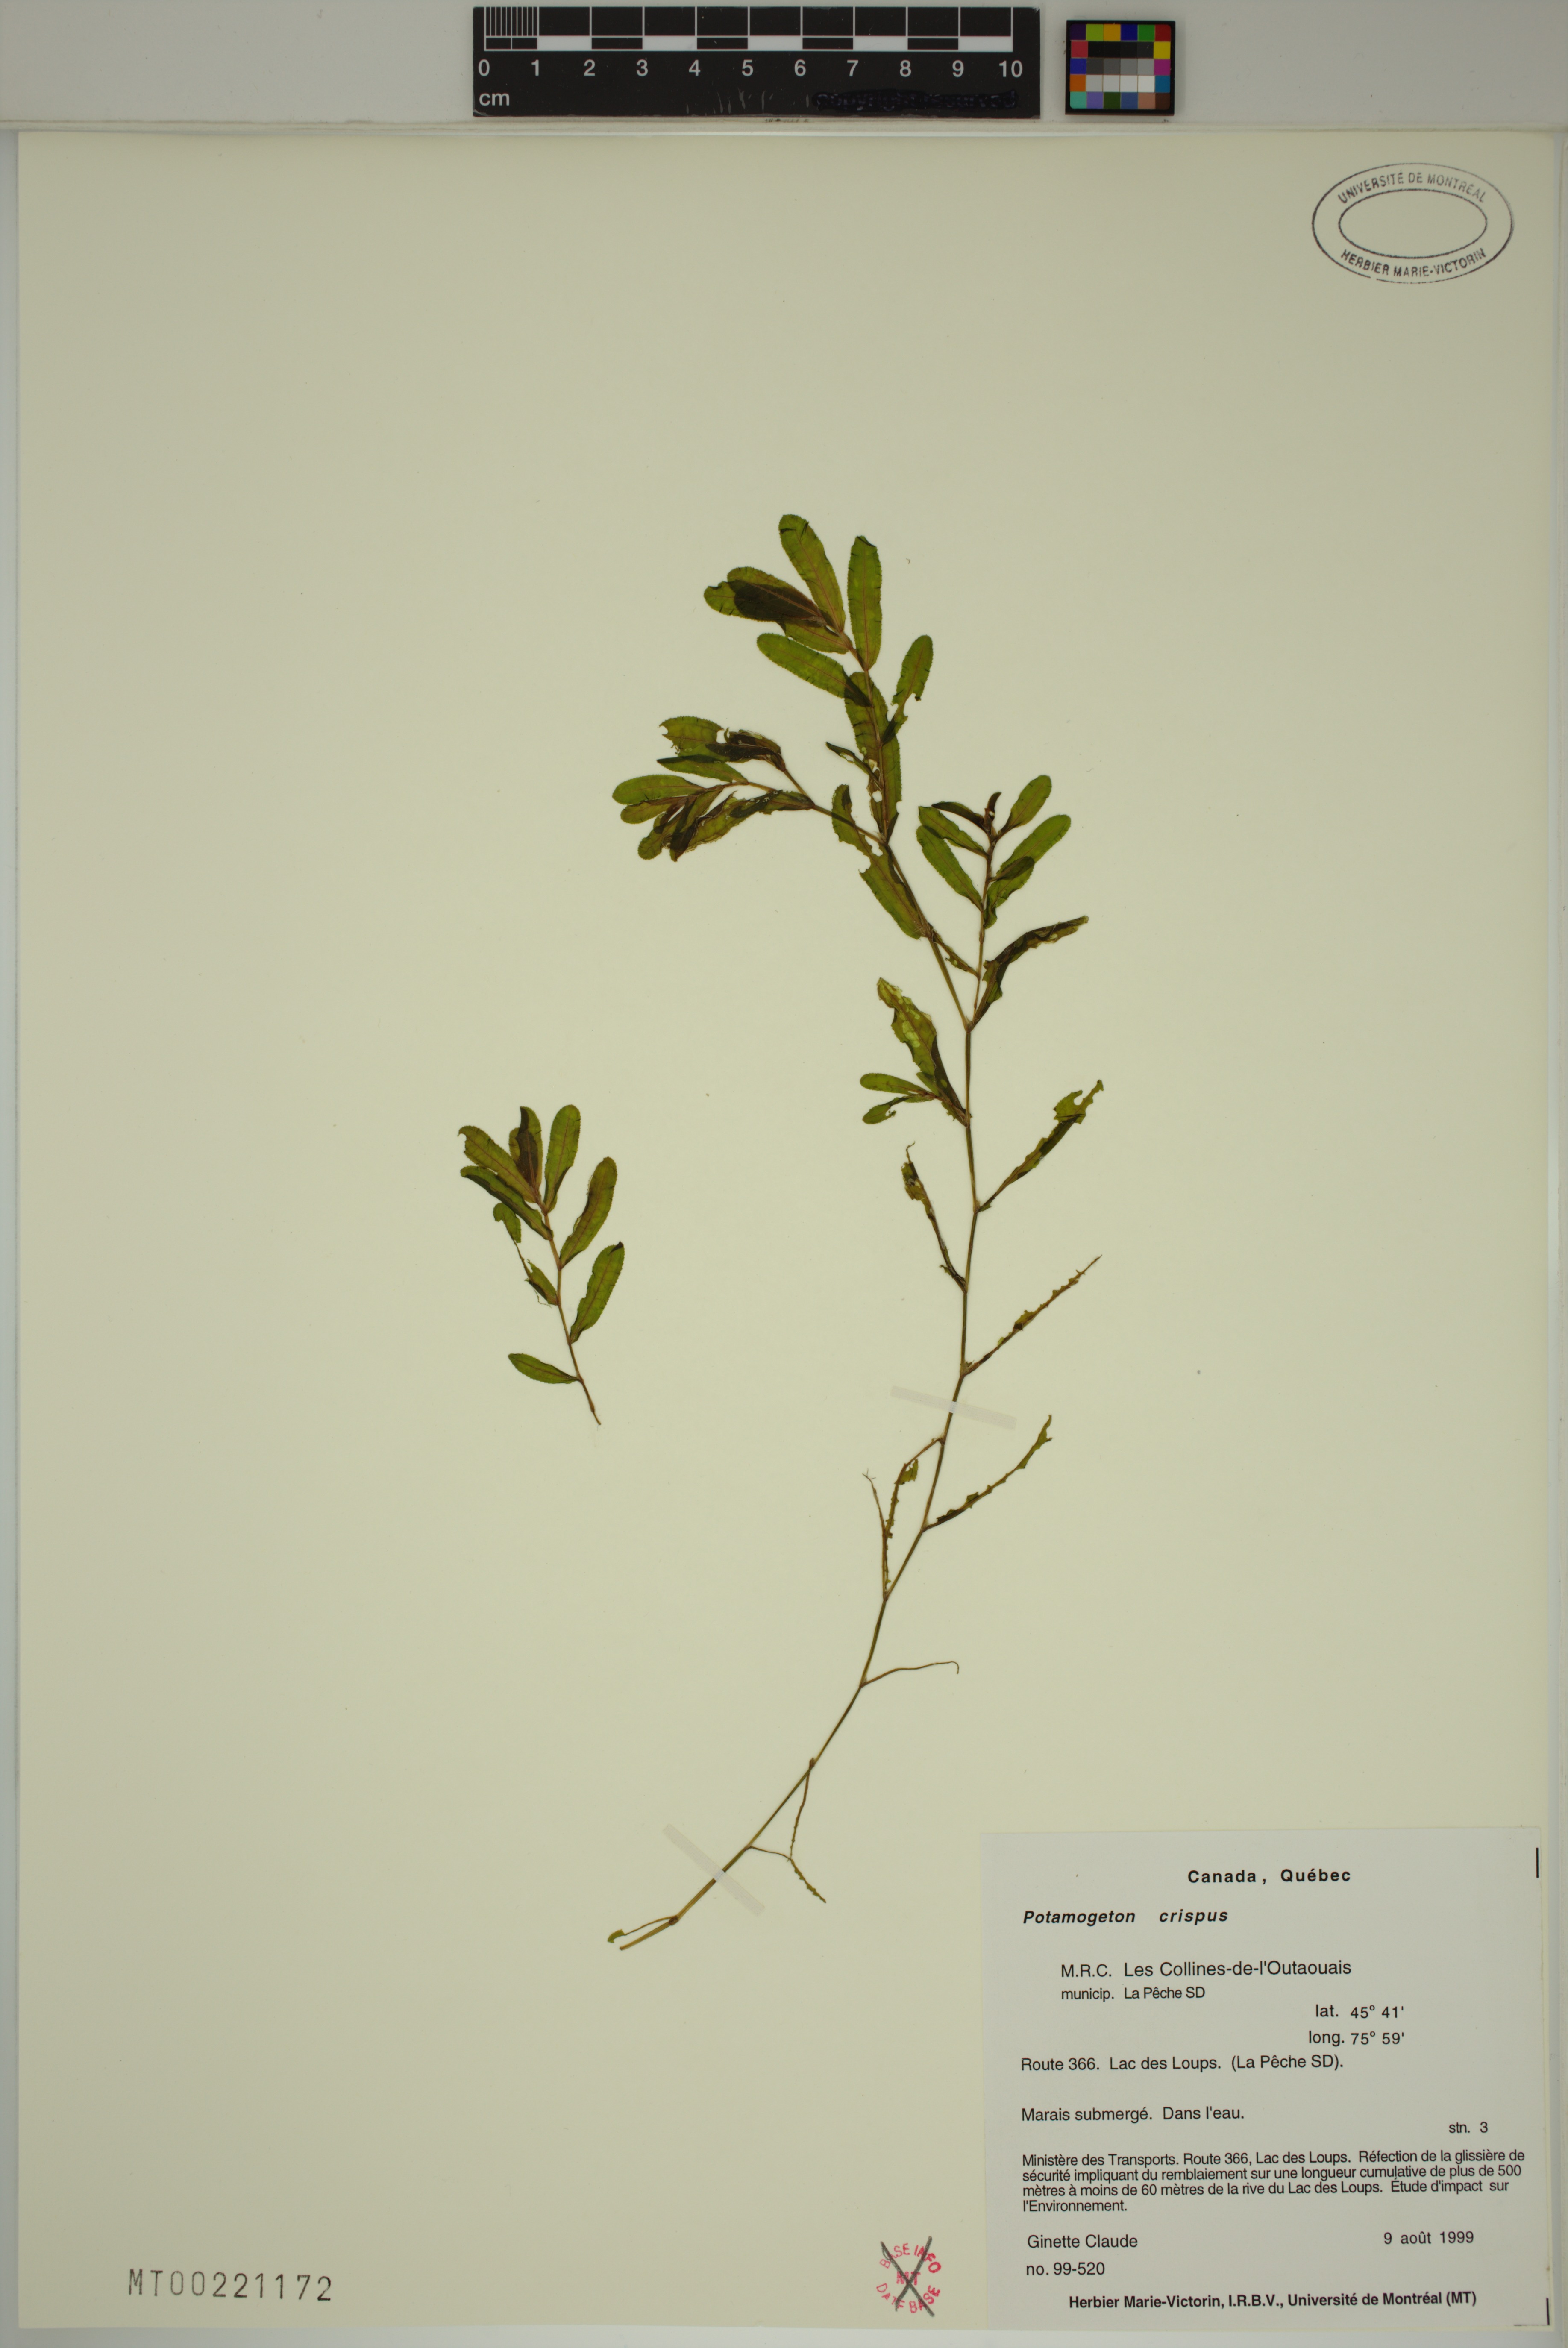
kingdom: Plantae
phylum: Tracheophyta
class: Liliopsida
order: Alismatales
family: Potamogetonaceae
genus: Potamogeton
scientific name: Potamogeton crispus
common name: Curled pondweed
